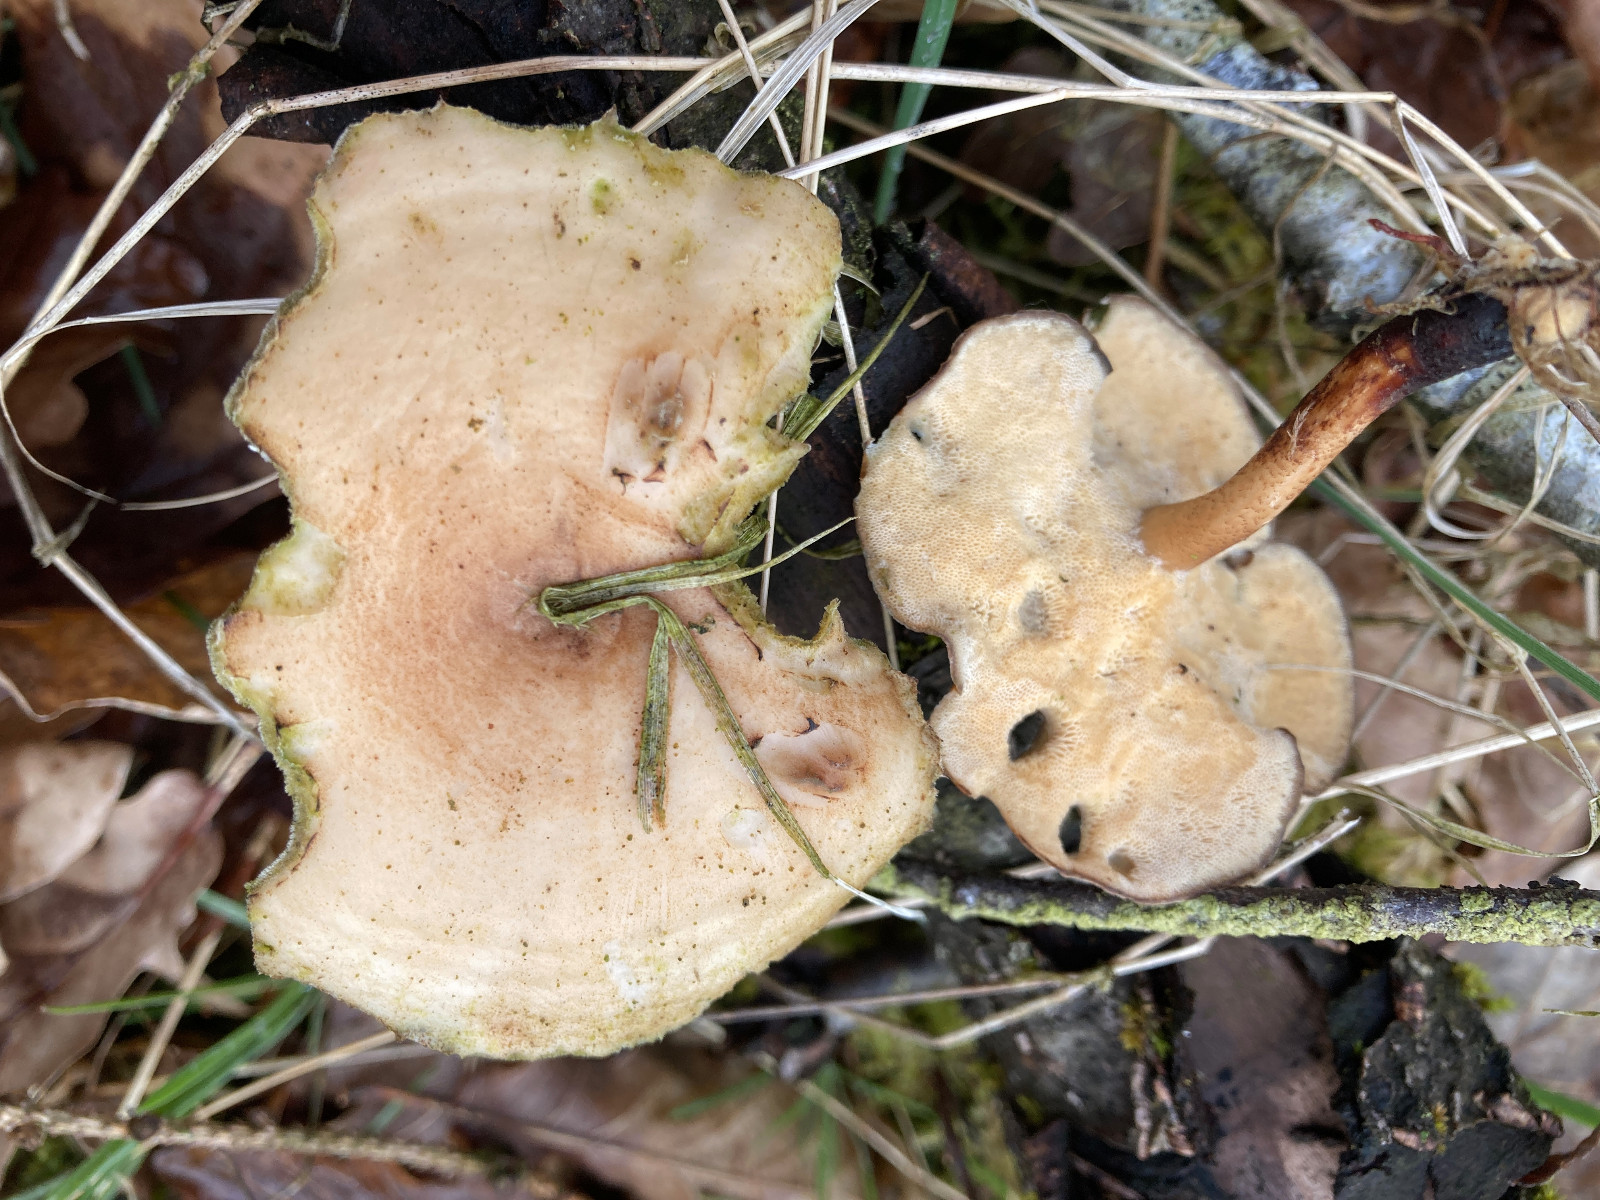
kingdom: Fungi
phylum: Basidiomycota
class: Agaricomycetes
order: Polyporales
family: Polyporaceae
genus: Lentinus
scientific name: Lentinus brumalis
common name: vinter-stilkporesvamp
